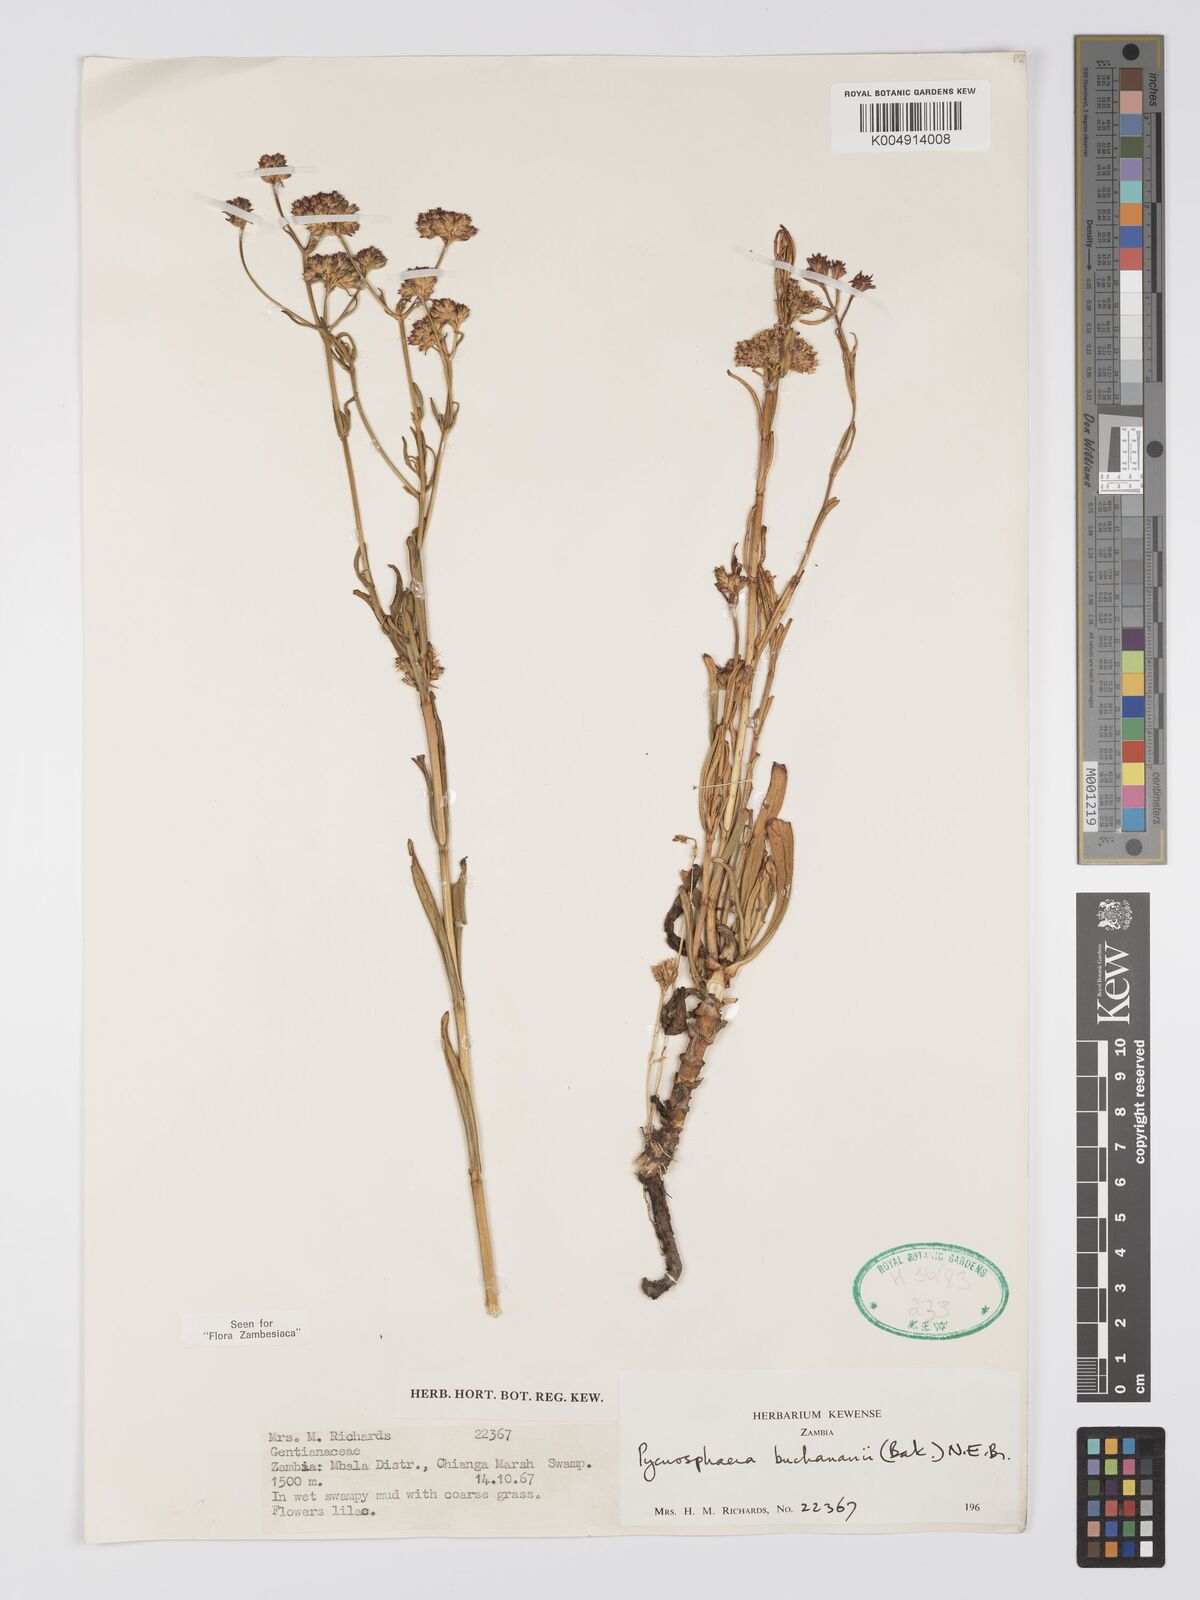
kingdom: Plantae
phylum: Tracheophyta
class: Magnoliopsida
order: Gentianales
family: Gentianaceae
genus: Pycnosphaera
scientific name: Pycnosphaera buchananii
